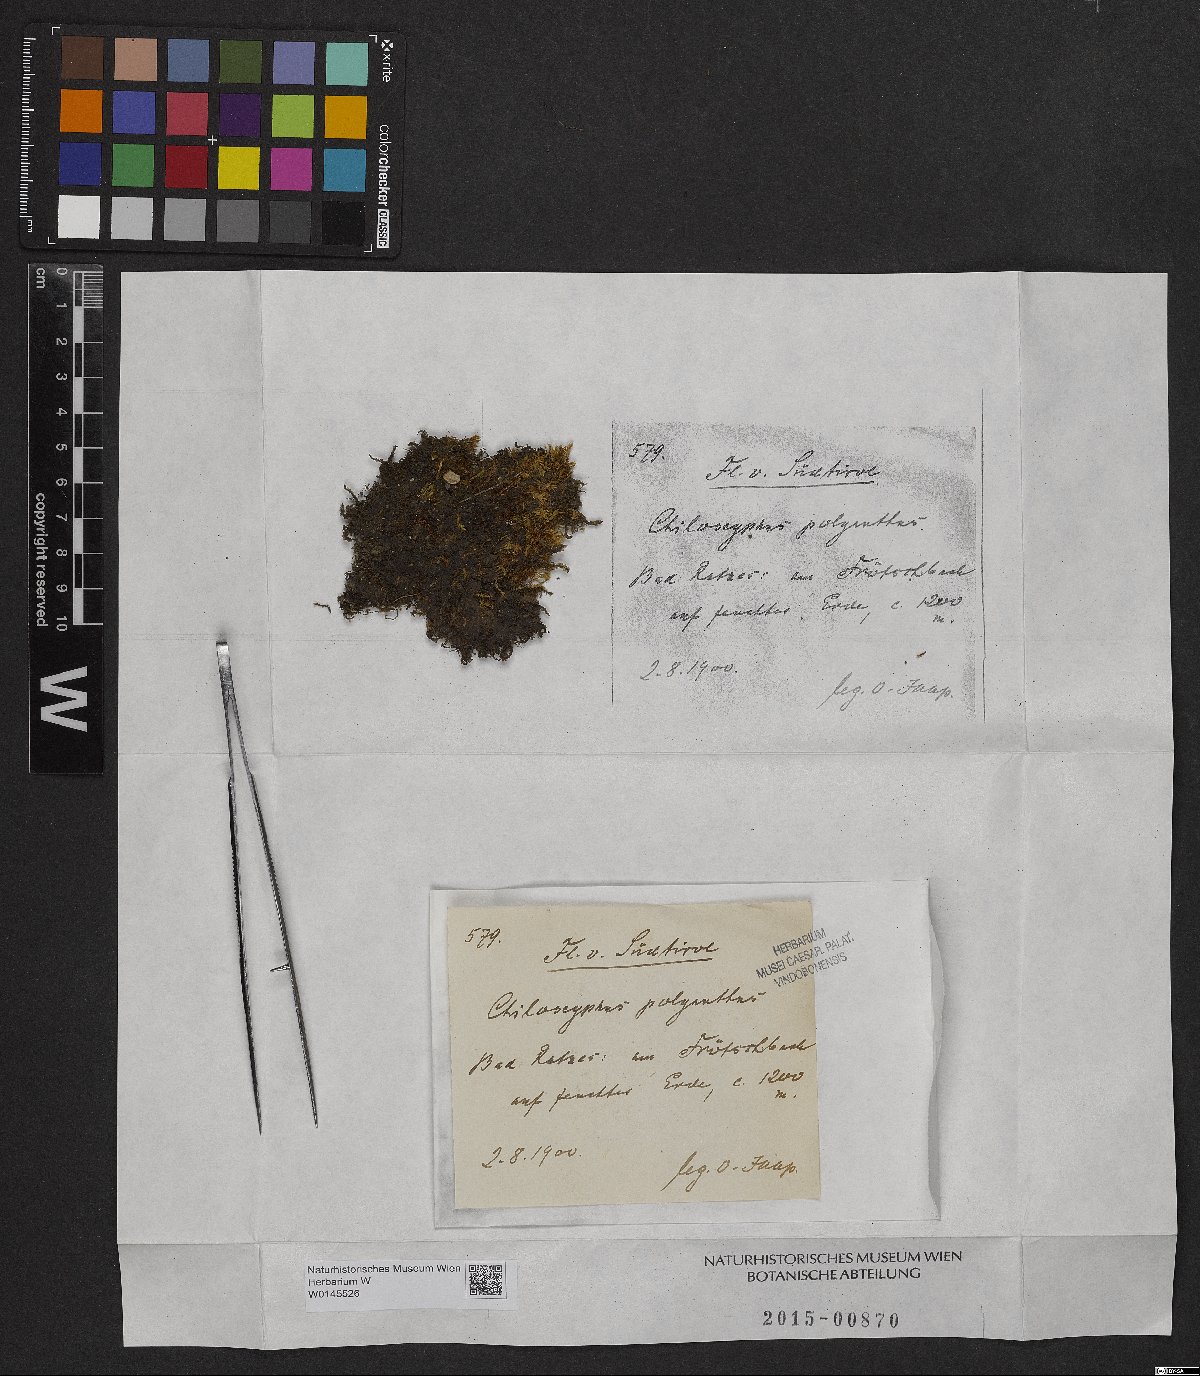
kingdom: Plantae
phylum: Marchantiophyta
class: Jungermanniopsida
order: Jungermanniales
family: Lophocoleaceae
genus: Chiloscyphus
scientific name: Chiloscyphus polyanthos
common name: Square-leaved crestwort
